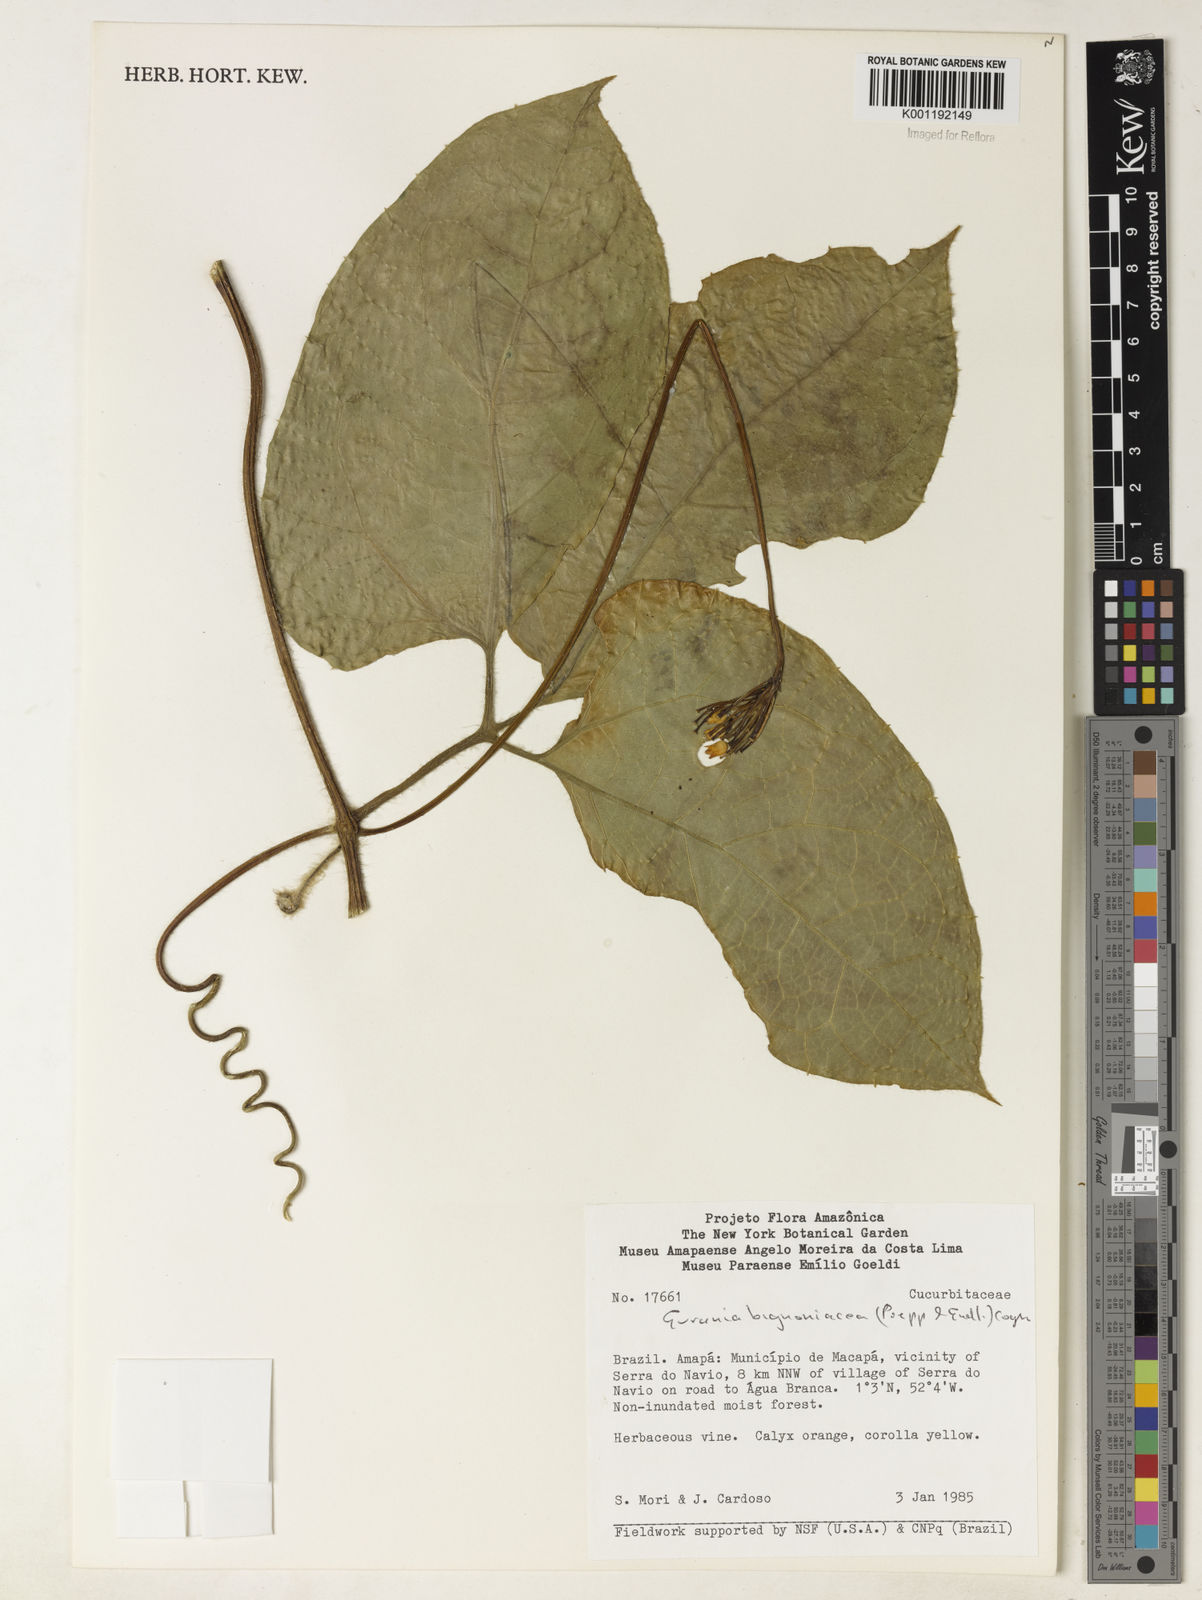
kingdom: Plantae
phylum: Tracheophyta
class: Magnoliopsida
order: Cucurbitales
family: Cucurbitaceae
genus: Gurania
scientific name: Gurania bignoniacea
